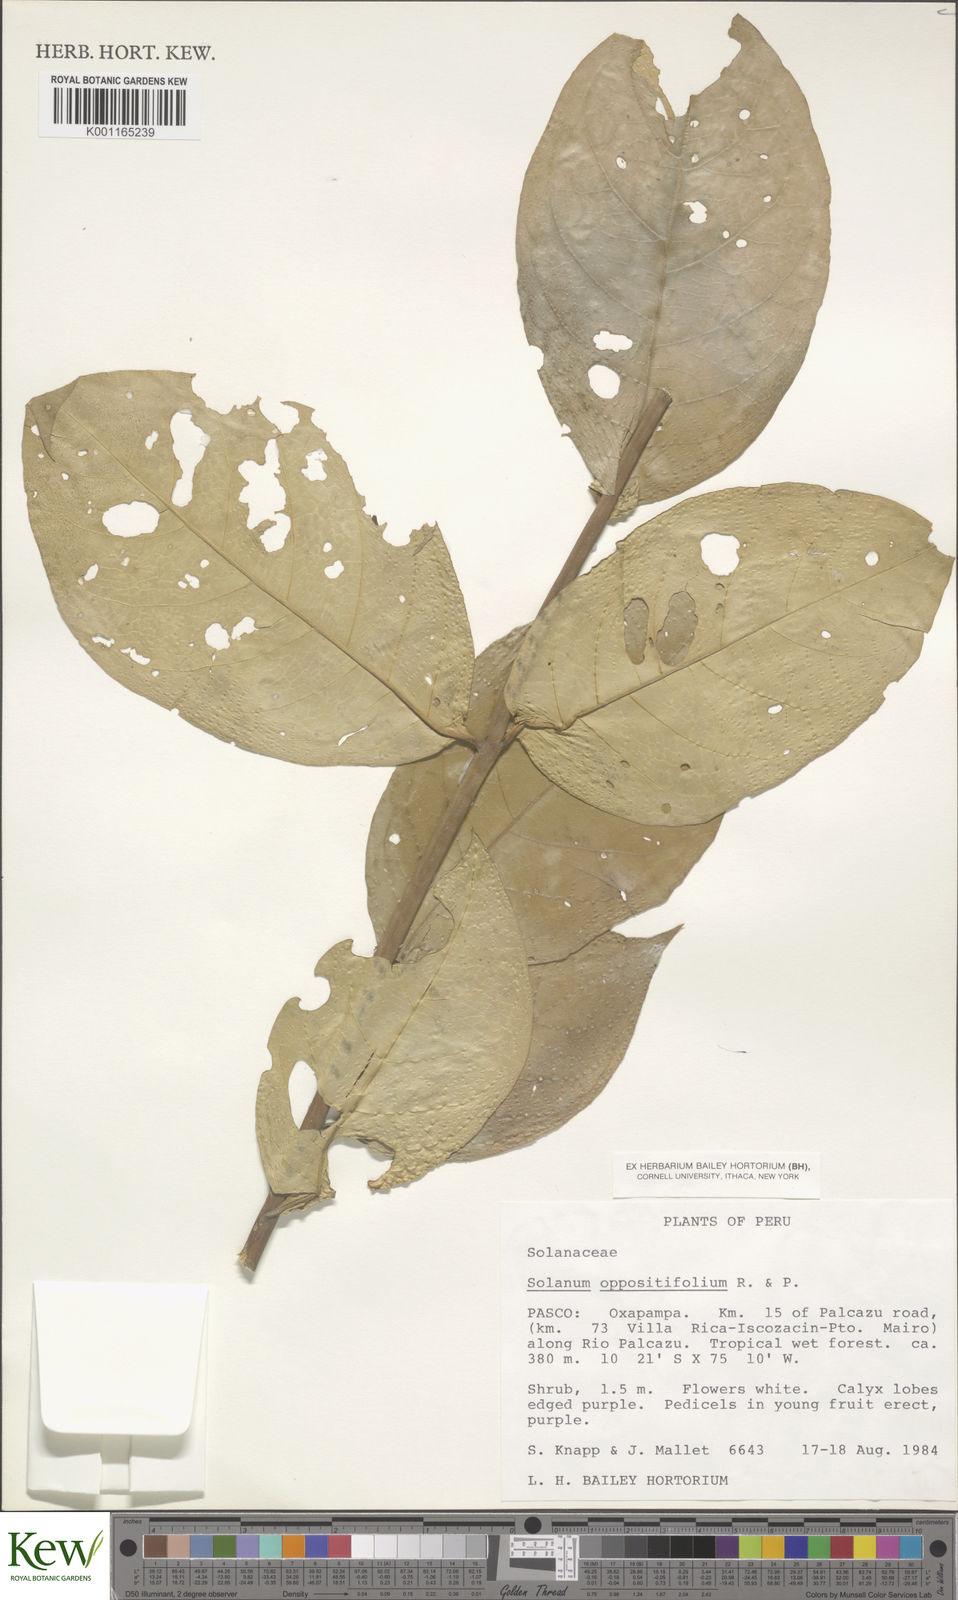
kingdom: Plantae
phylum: Tracheophyta
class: Magnoliopsida
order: Solanales
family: Solanaceae
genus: Solanum
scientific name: Solanum oppositifolium
